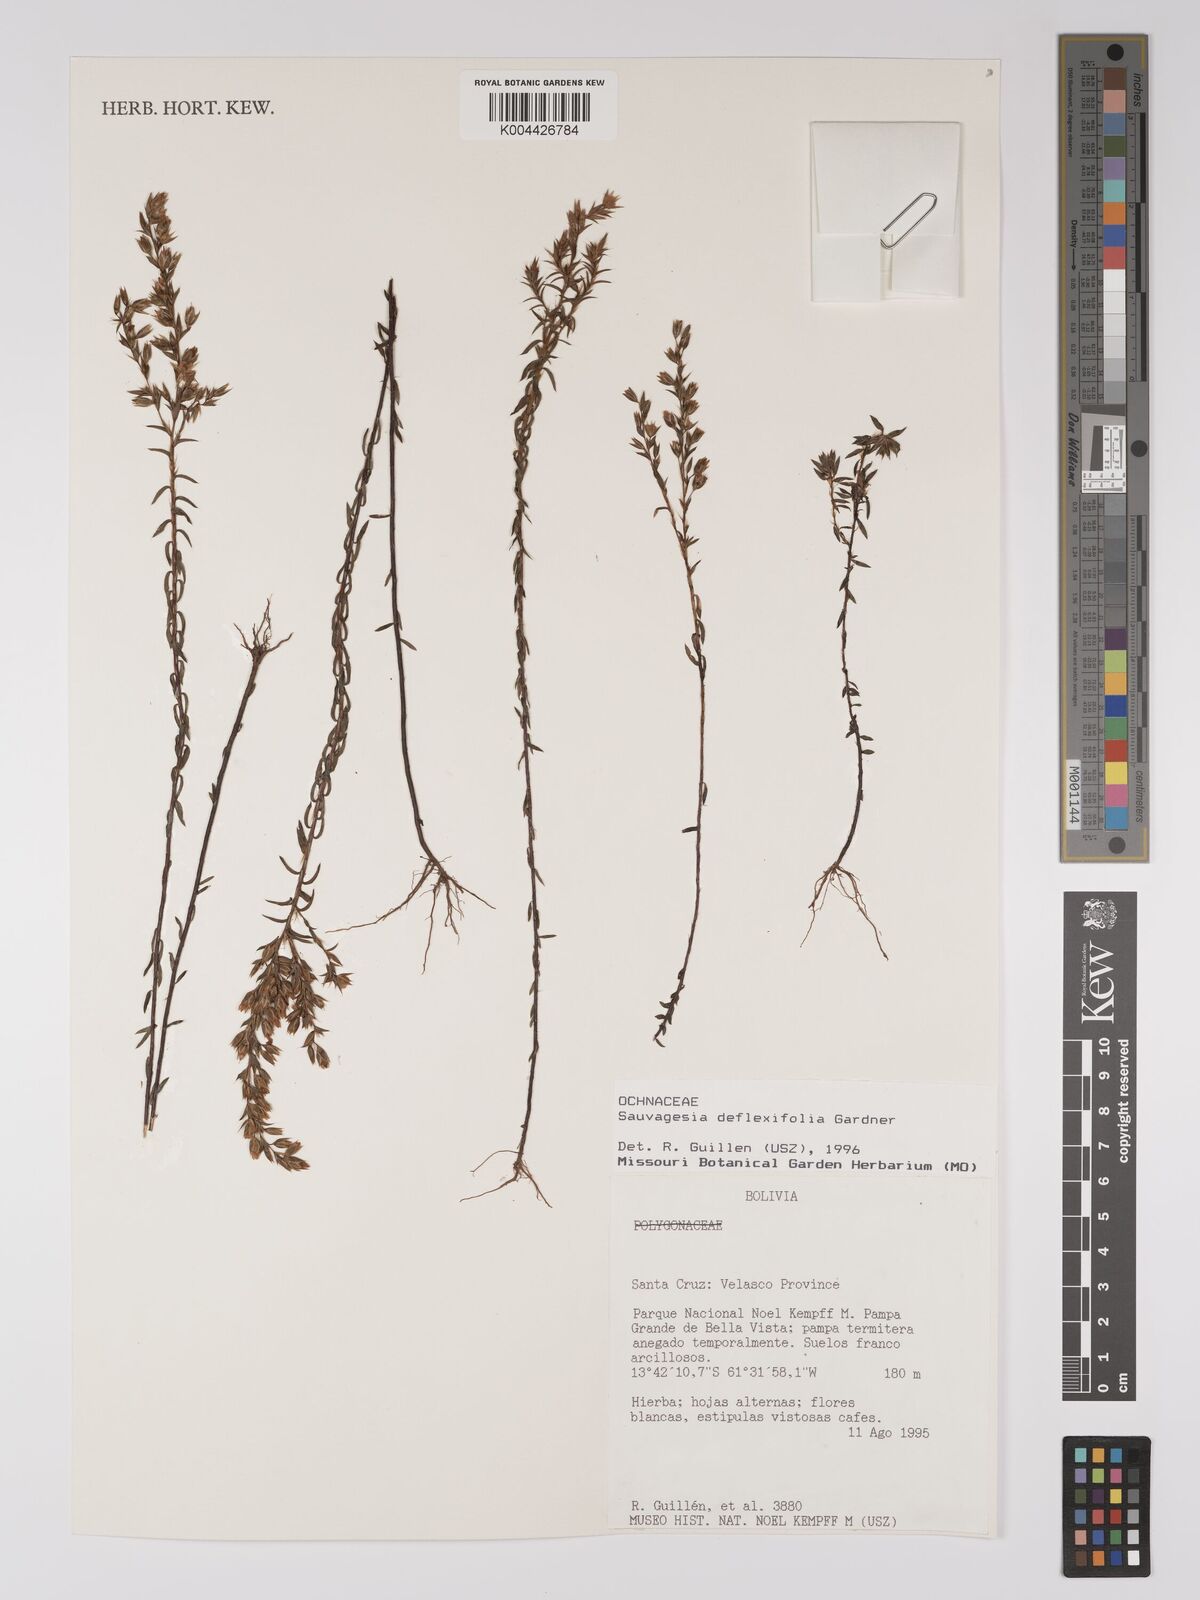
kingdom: Plantae
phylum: Tracheophyta
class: Magnoliopsida
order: Malpighiales
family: Ochnaceae
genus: Sauvagesia
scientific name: Sauvagesia deflexifolia
